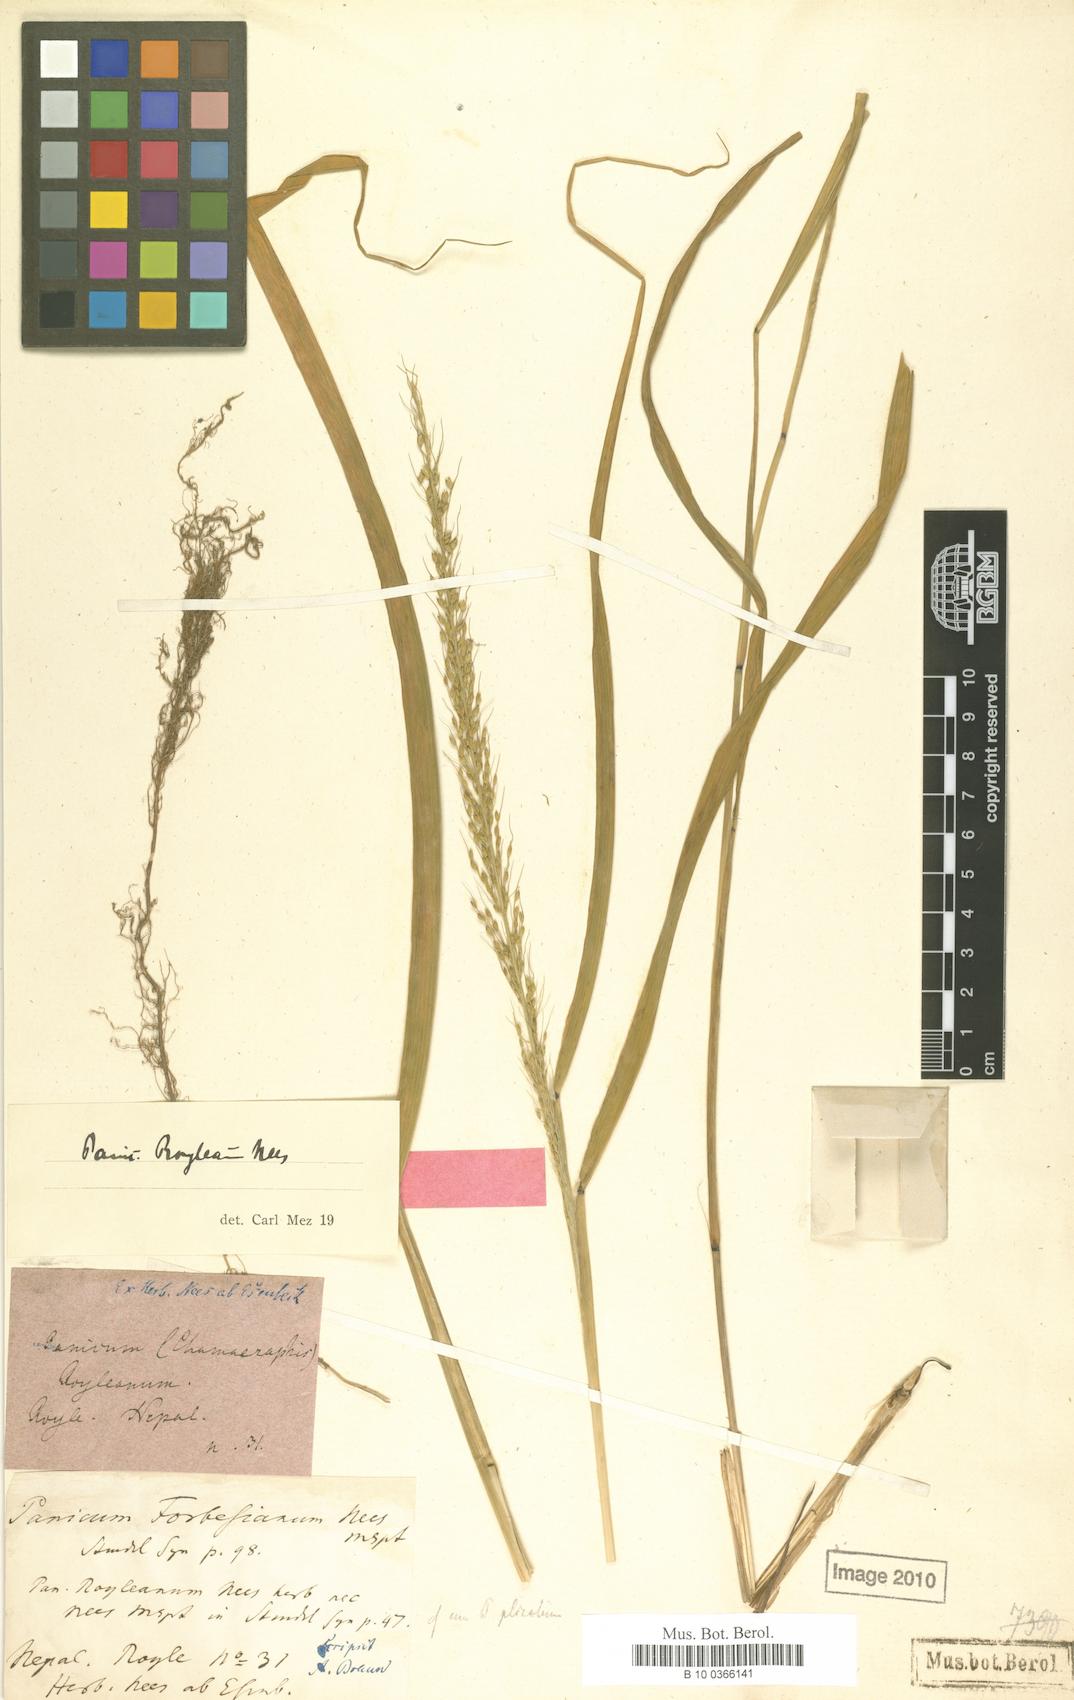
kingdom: Plantae
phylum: Tracheophyta
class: Liliopsida
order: Poales
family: Poaceae
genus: Setaria
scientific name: Setaria forbesiana
